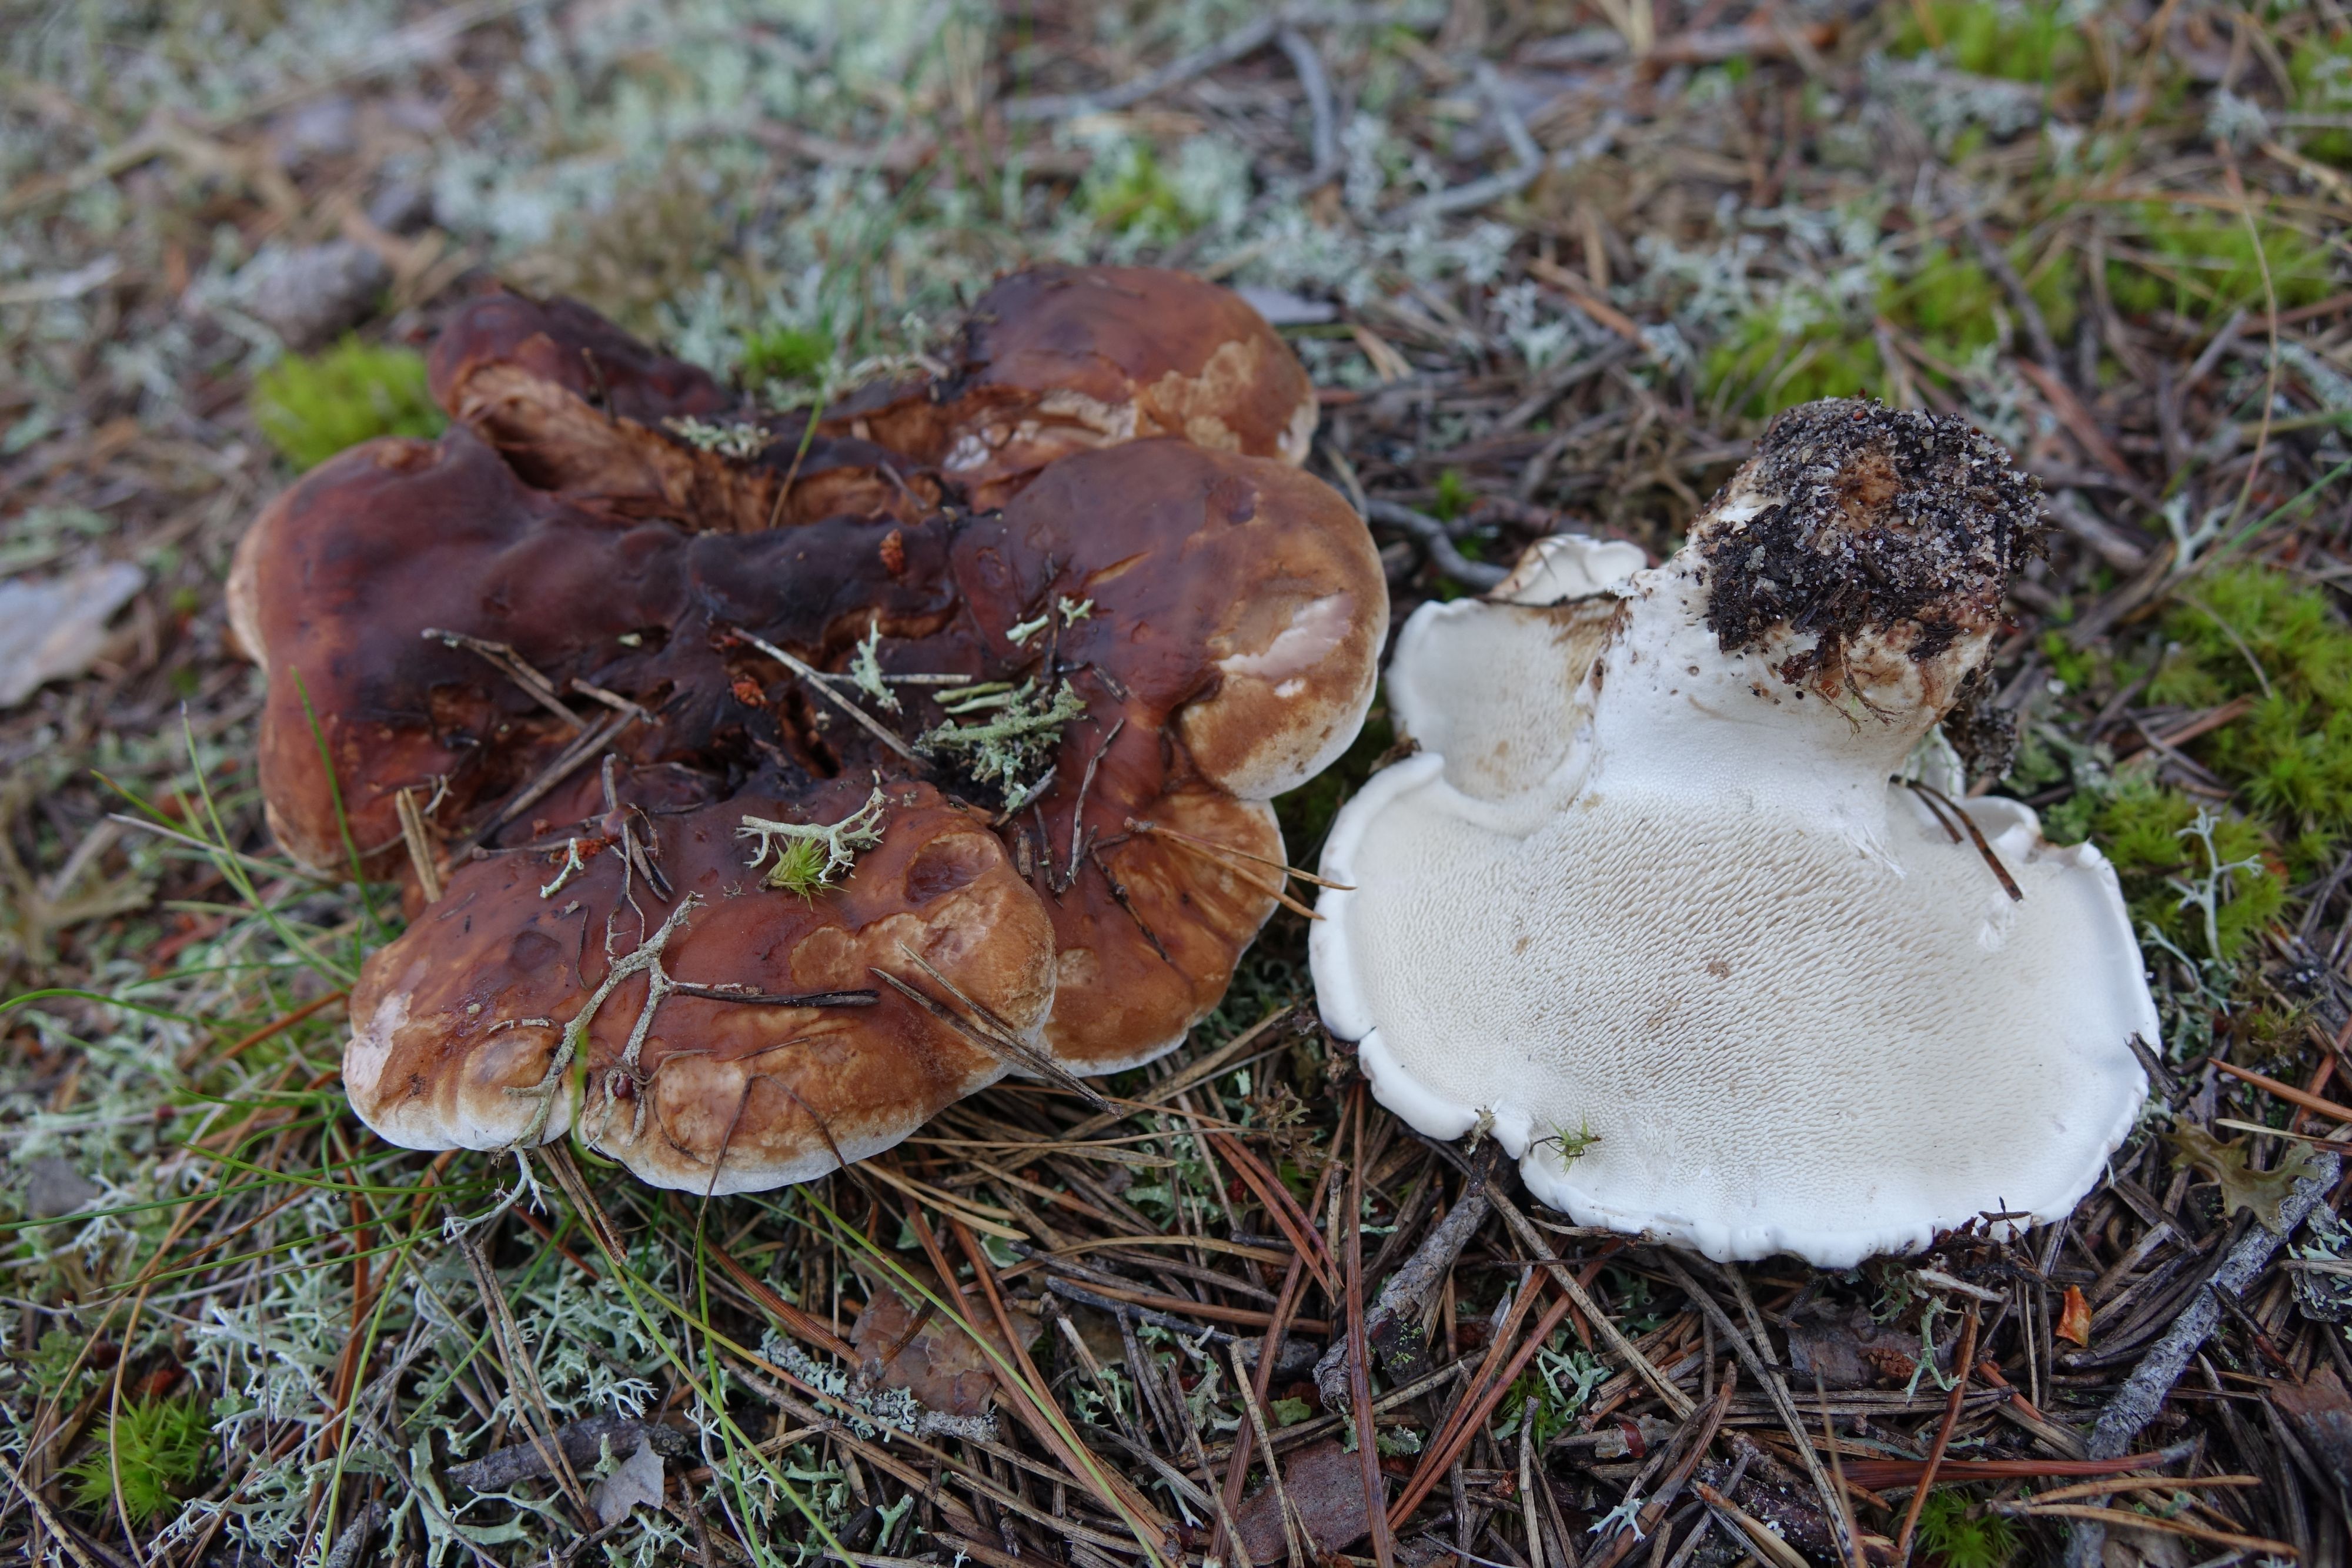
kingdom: Fungi
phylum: Basidiomycota
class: Agaricomycetes
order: Thelephorales
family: Thelephoraceae
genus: Phellodon
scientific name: Phellodon fuligineoalbus
